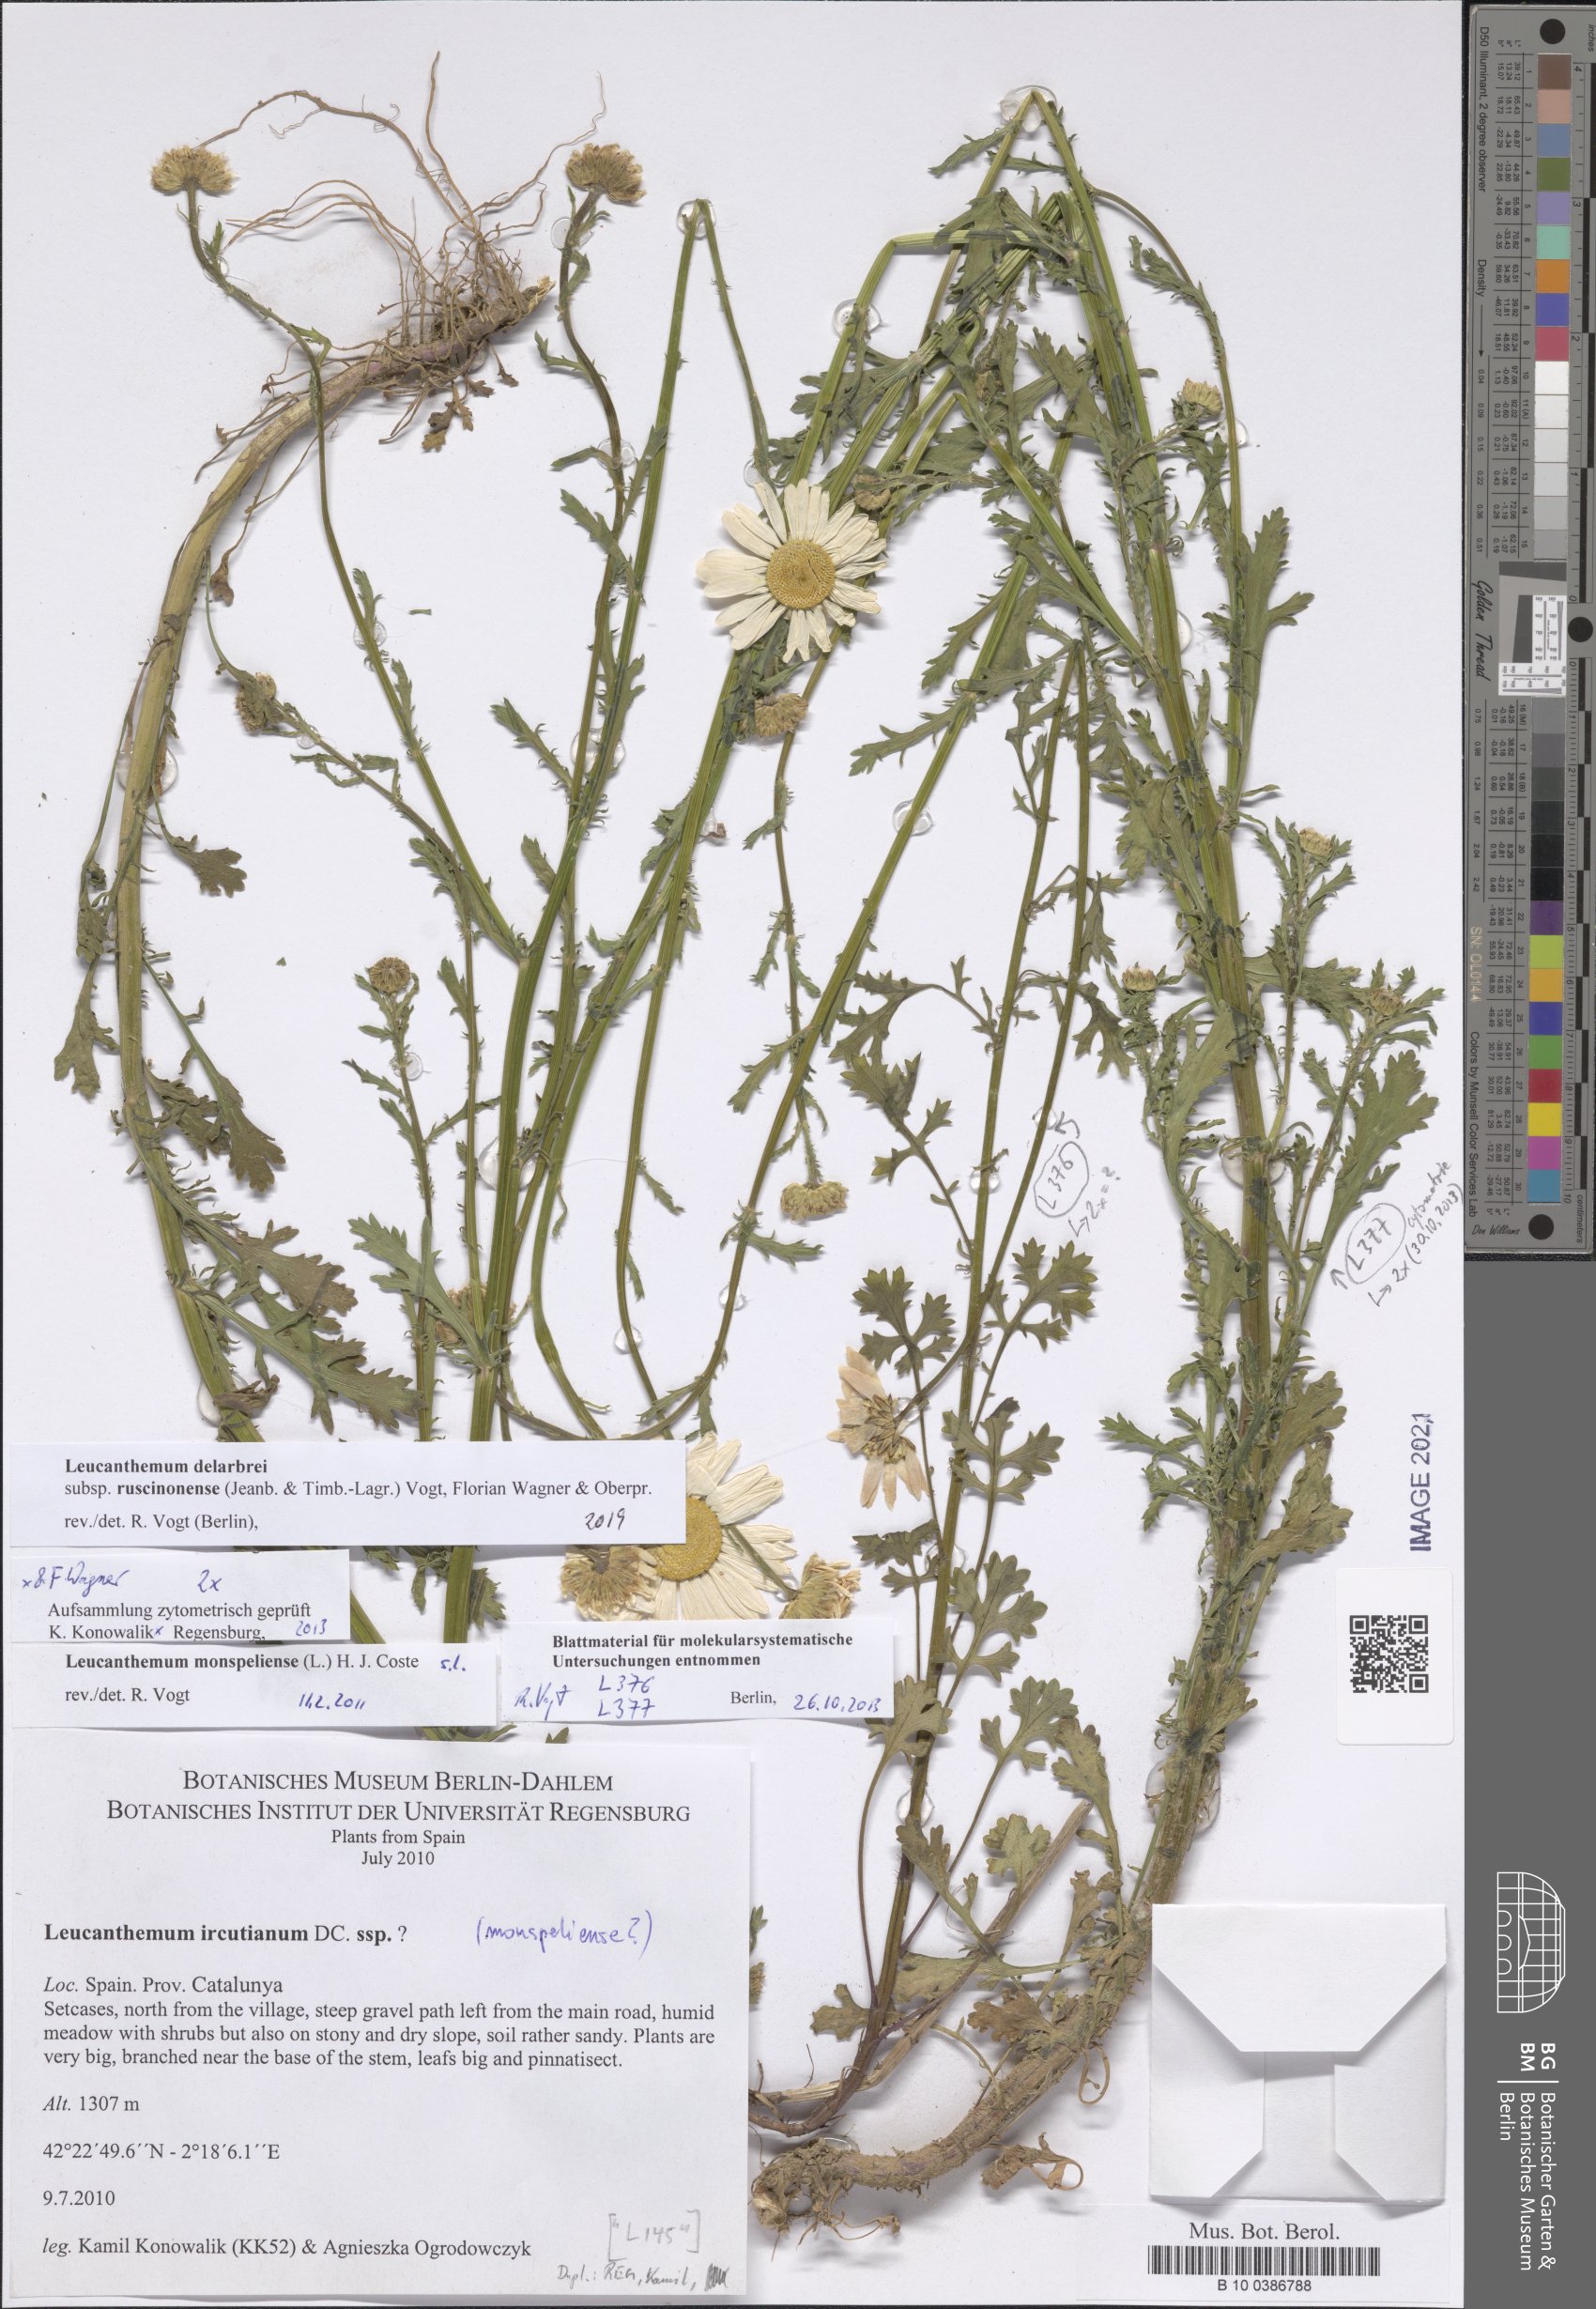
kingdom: Plantae
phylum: Tracheophyta
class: Magnoliopsida
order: Asterales
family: Asteraceae
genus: Leucanthemum
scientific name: Leucanthemum delarbrei
